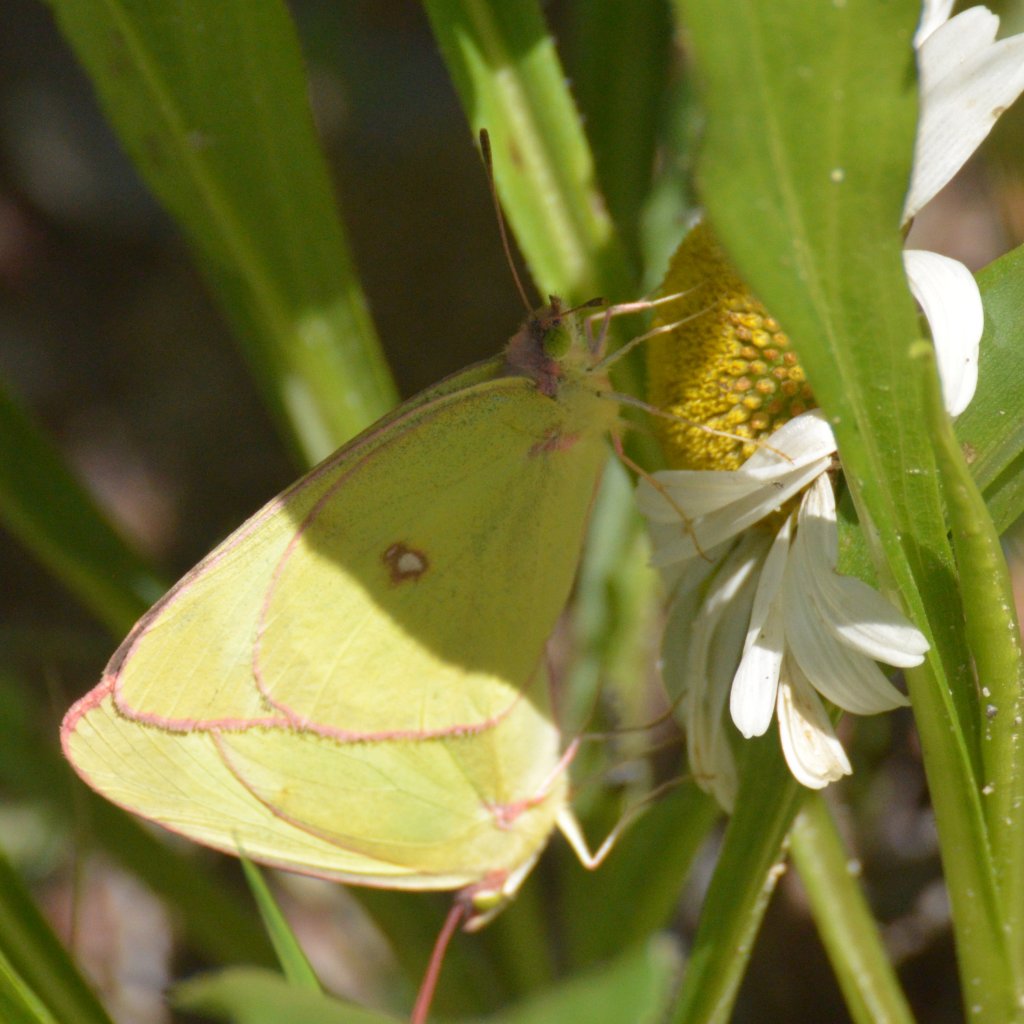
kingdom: Animalia
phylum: Arthropoda
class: Insecta
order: Lepidoptera
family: Pieridae
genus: Colias
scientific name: Colias interior
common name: Pink-edged Sulphur
